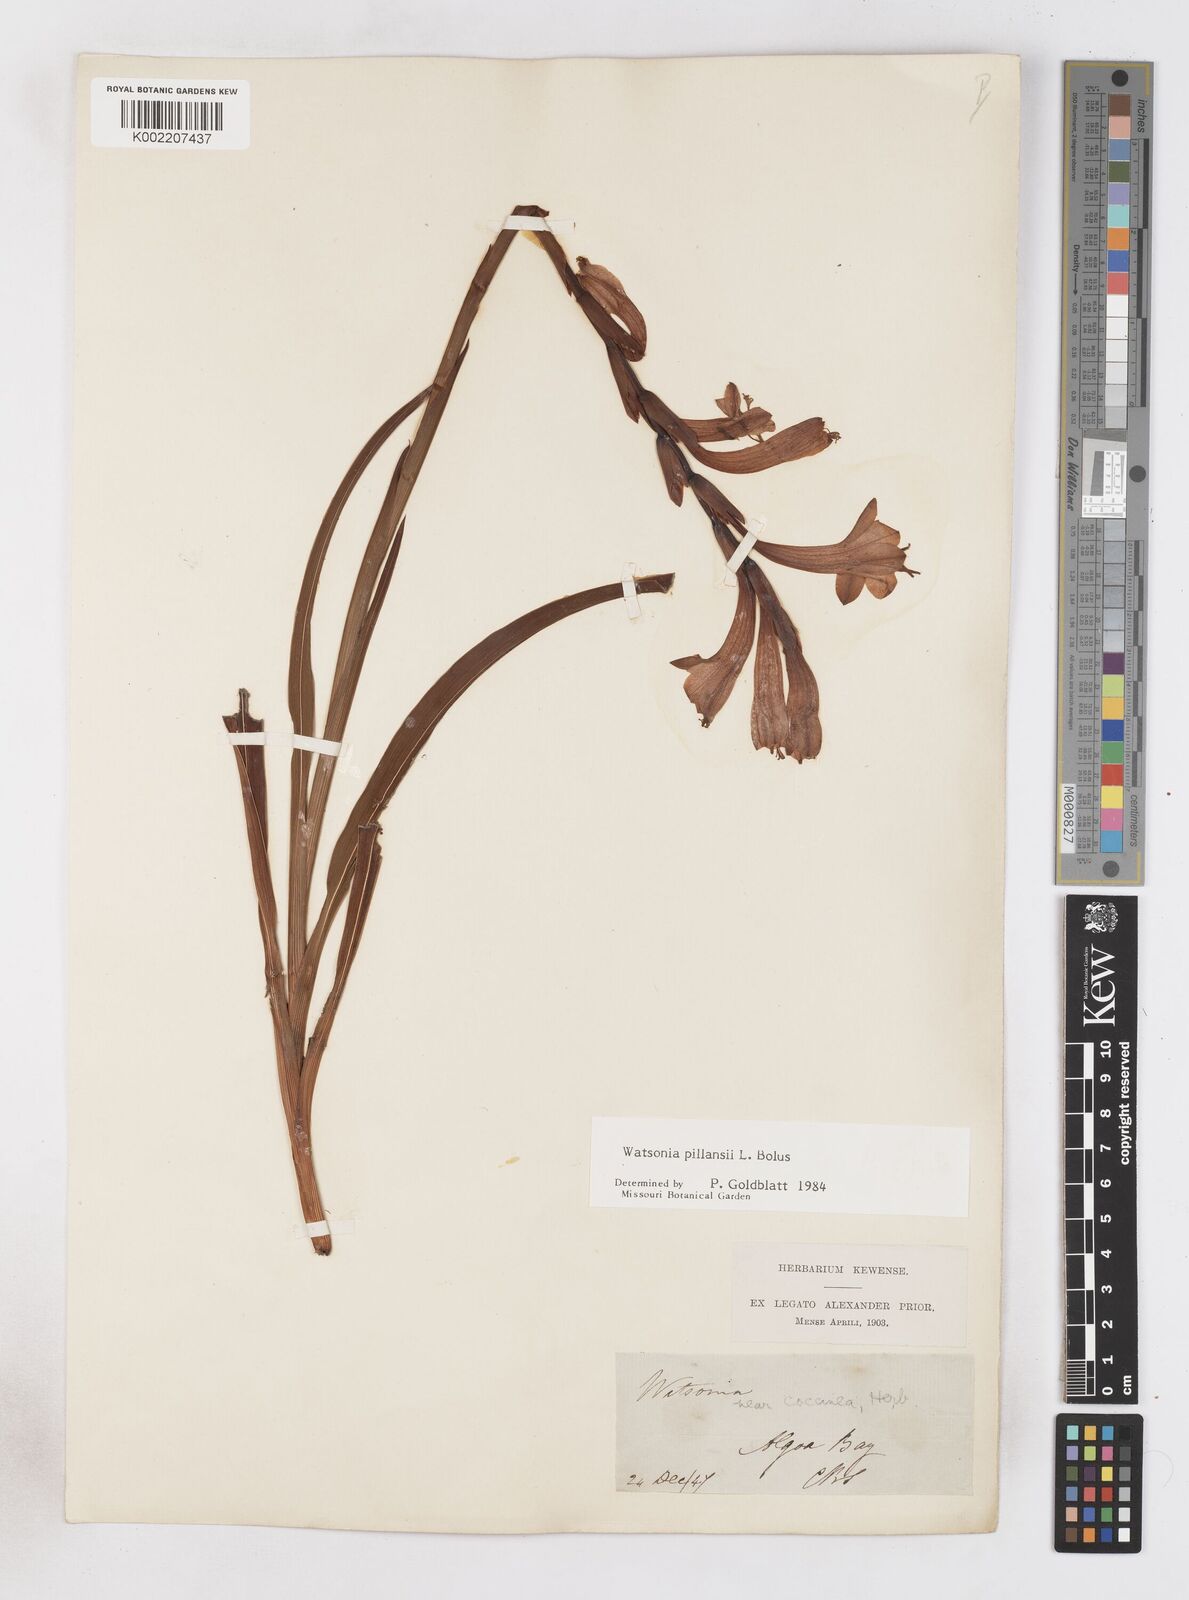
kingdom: Plantae
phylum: Tracheophyta
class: Liliopsida
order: Asparagales
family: Iridaceae
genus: Watsonia
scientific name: Watsonia pillansii
